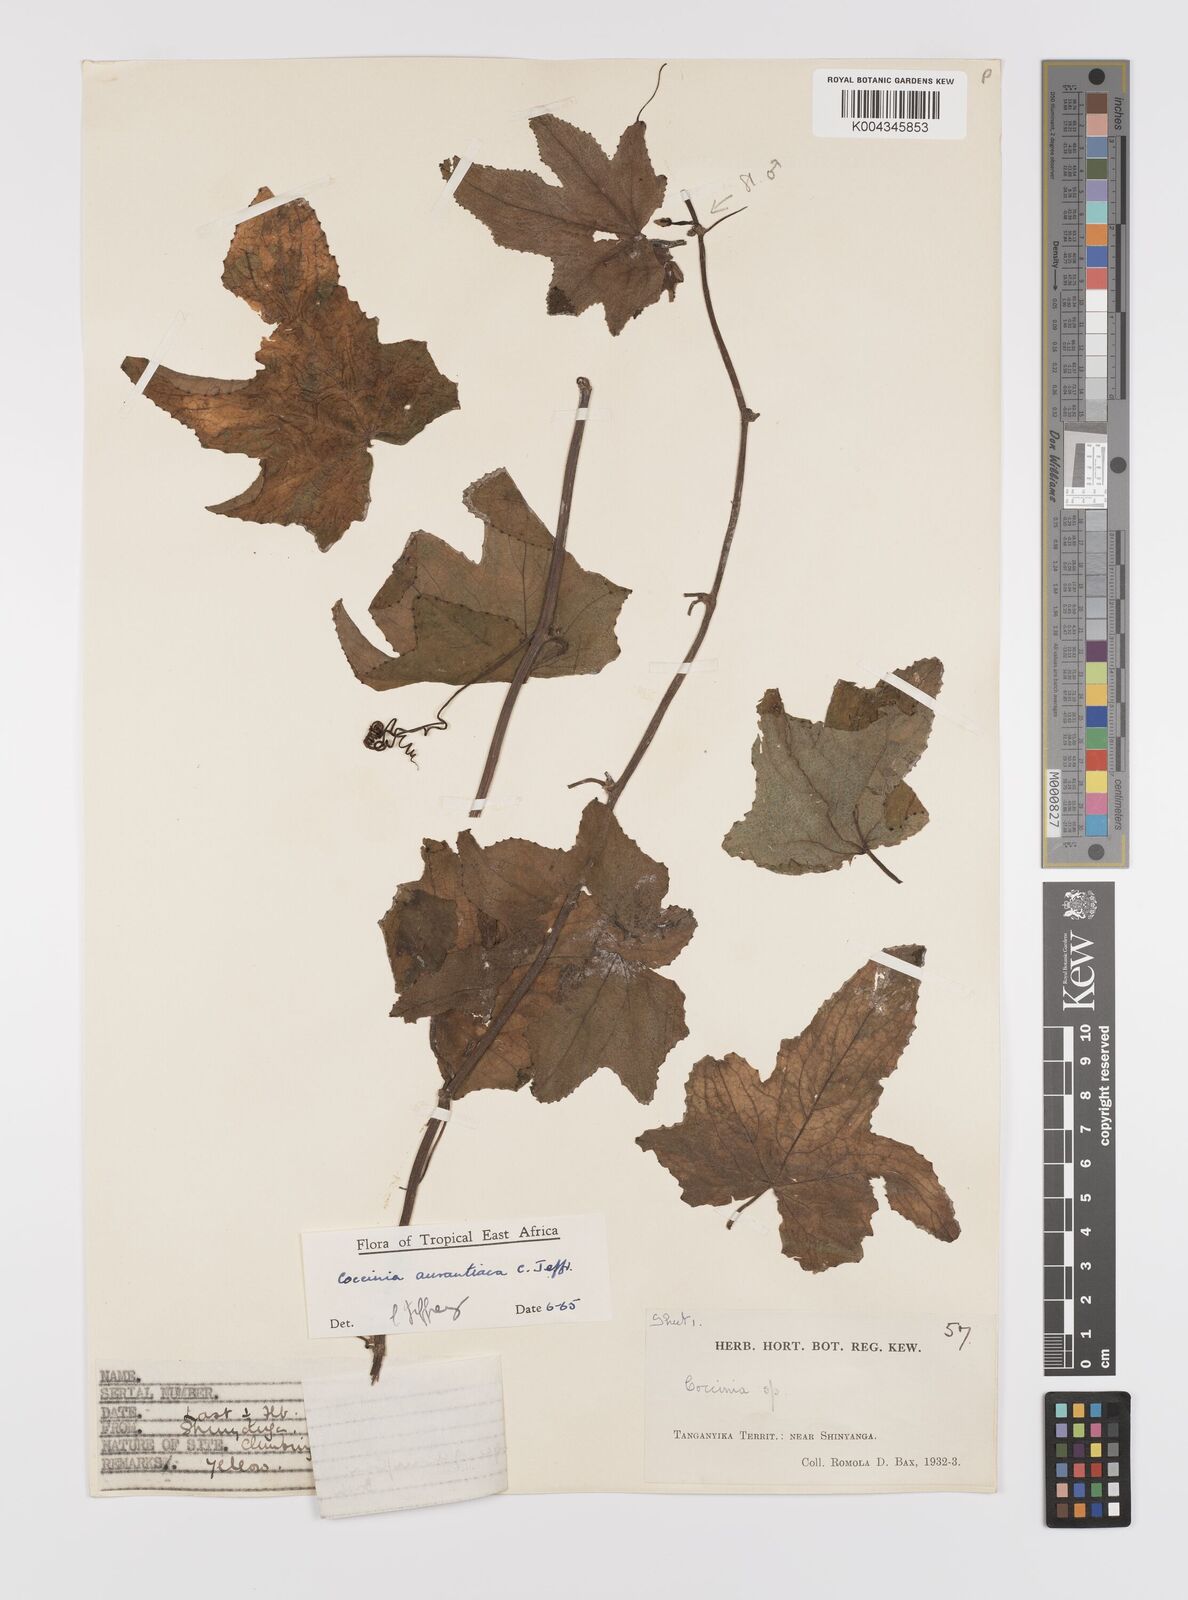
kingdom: Plantae
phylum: Tracheophyta
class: Magnoliopsida
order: Cucurbitales
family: Cucurbitaceae
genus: Coccinia
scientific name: Coccinia adoensis
